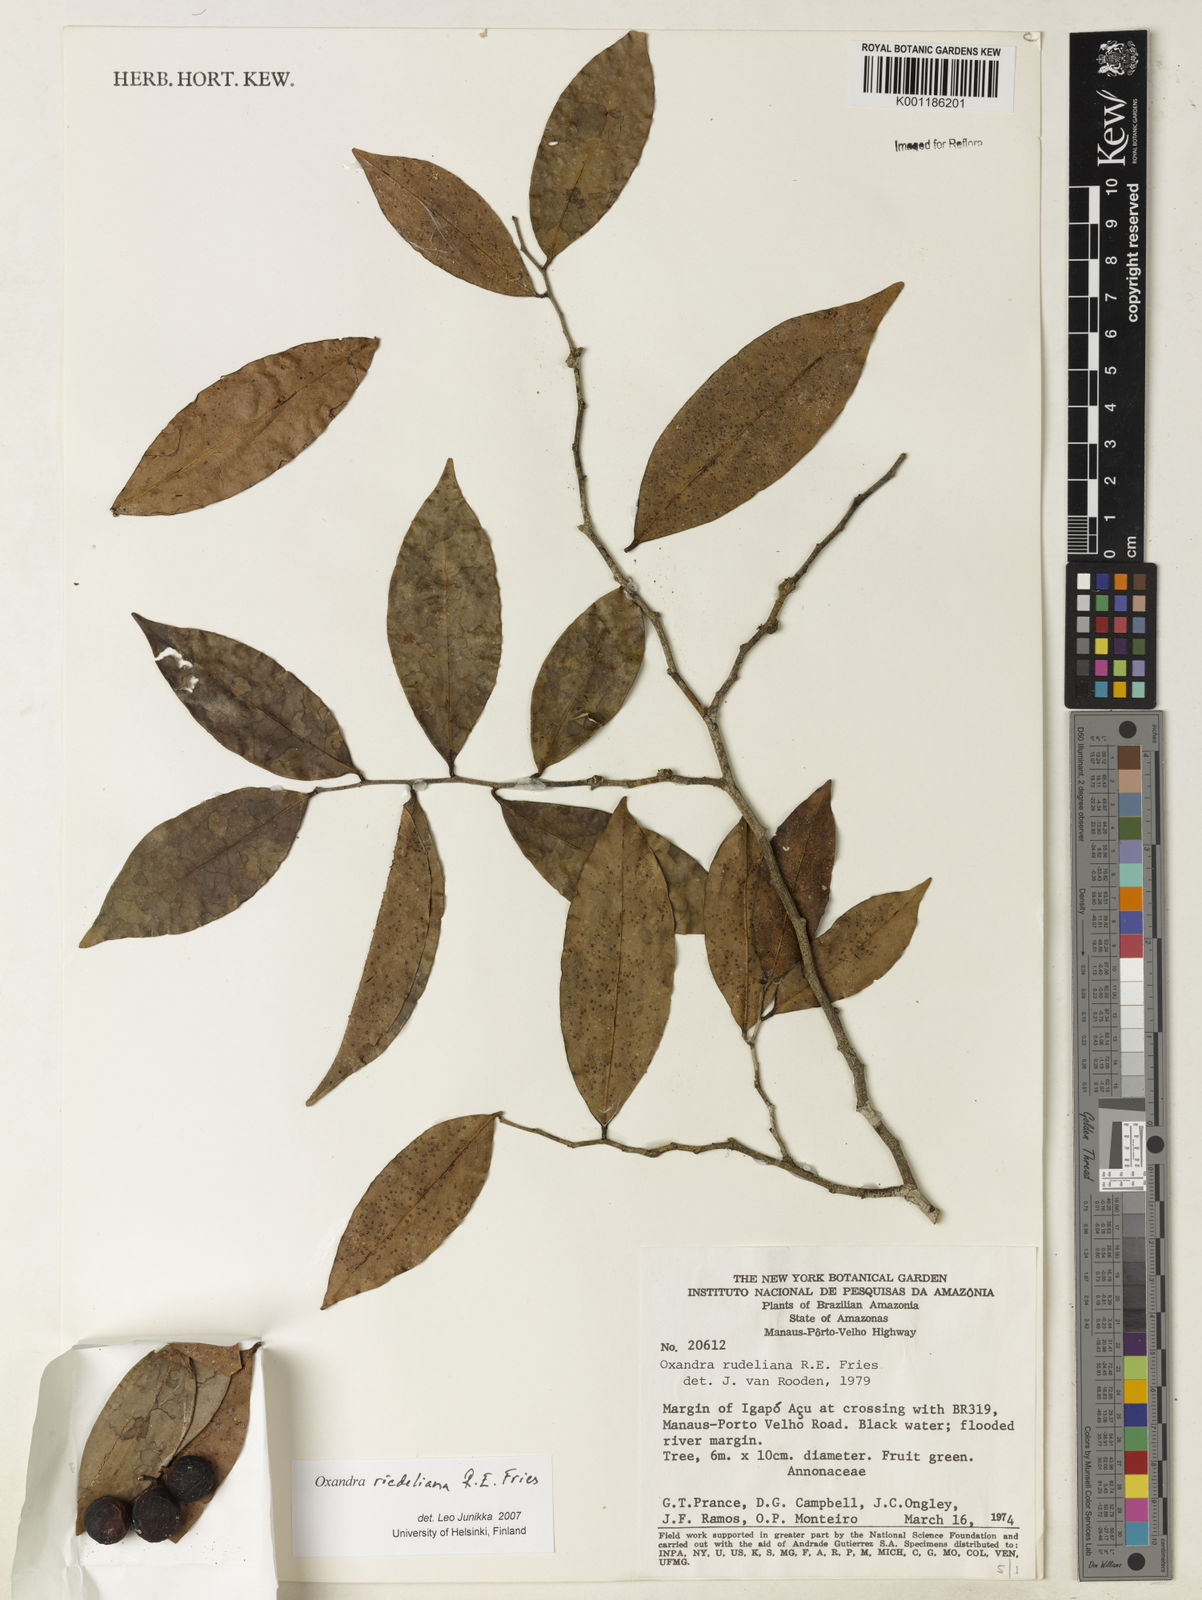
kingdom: Plantae
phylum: Tracheophyta
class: Magnoliopsida
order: Magnoliales
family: Annonaceae
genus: Oxandra
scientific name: Oxandra riedeliana
